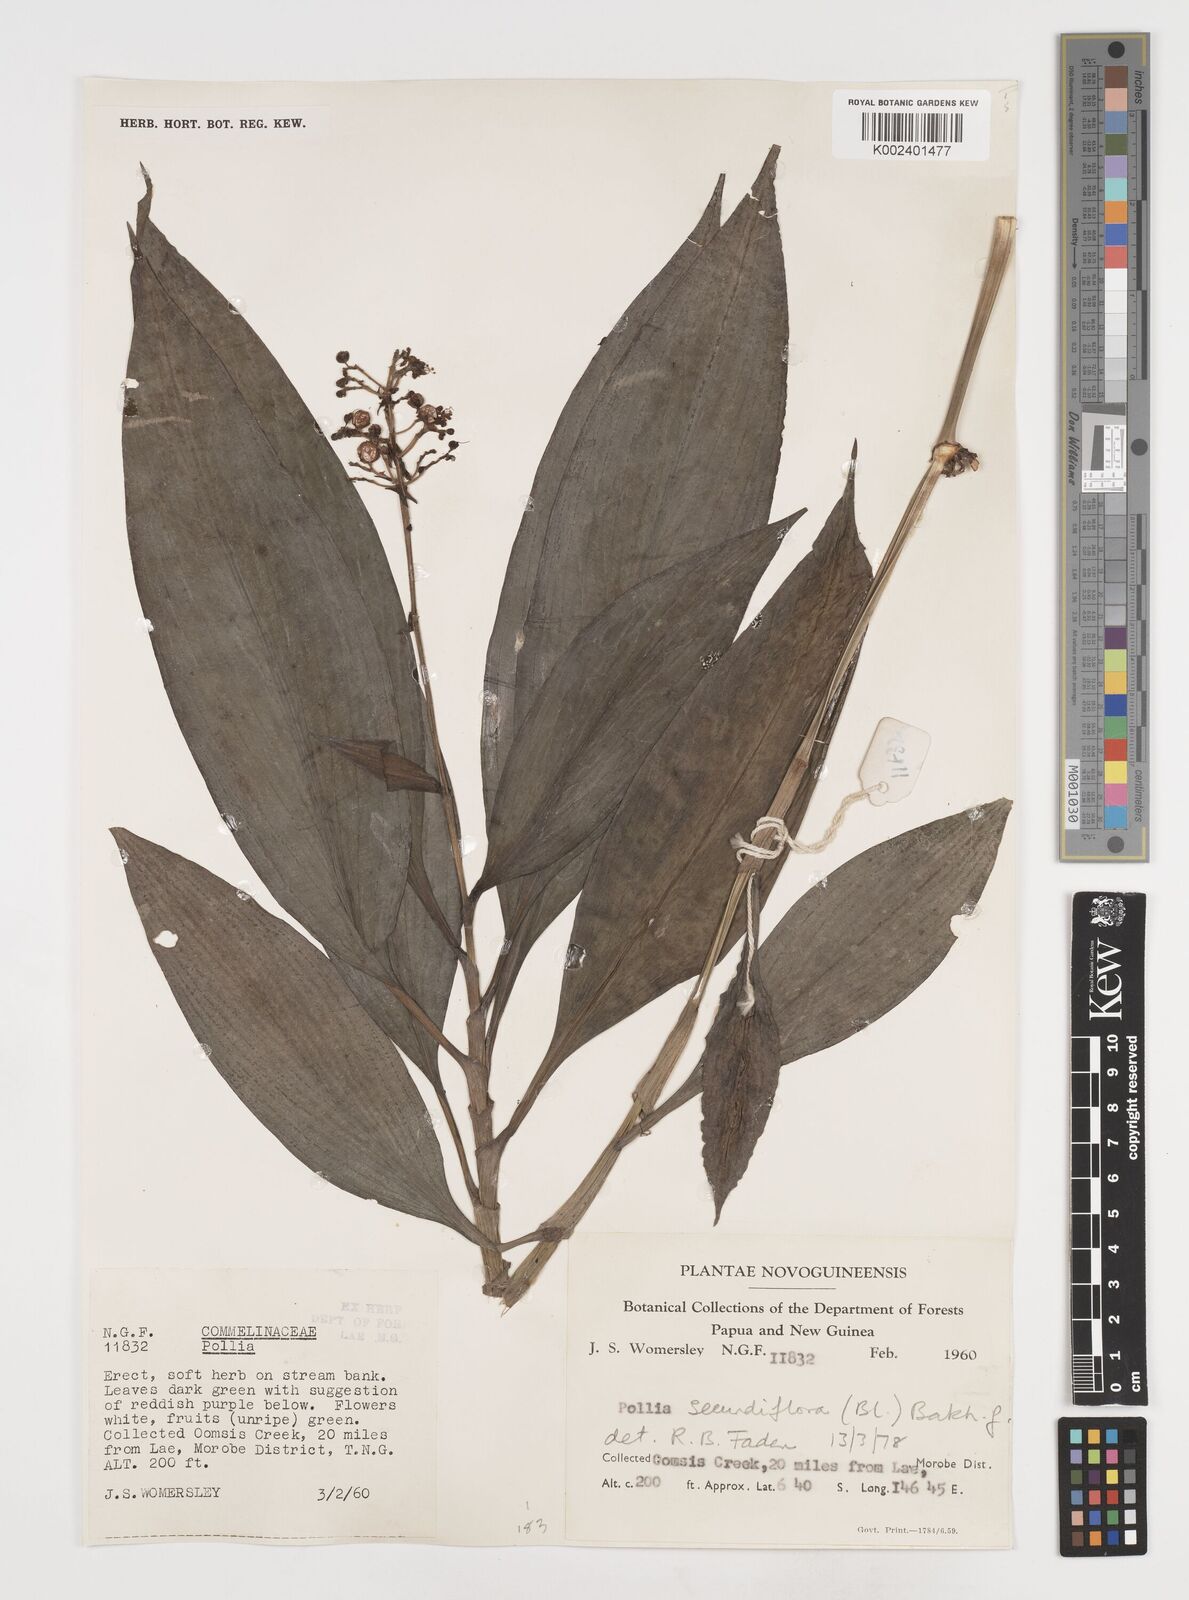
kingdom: Plantae
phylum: Tracheophyta
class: Liliopsida
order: Commelinales
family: Commelinaceae
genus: Pollia
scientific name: Pollia secundiflora
